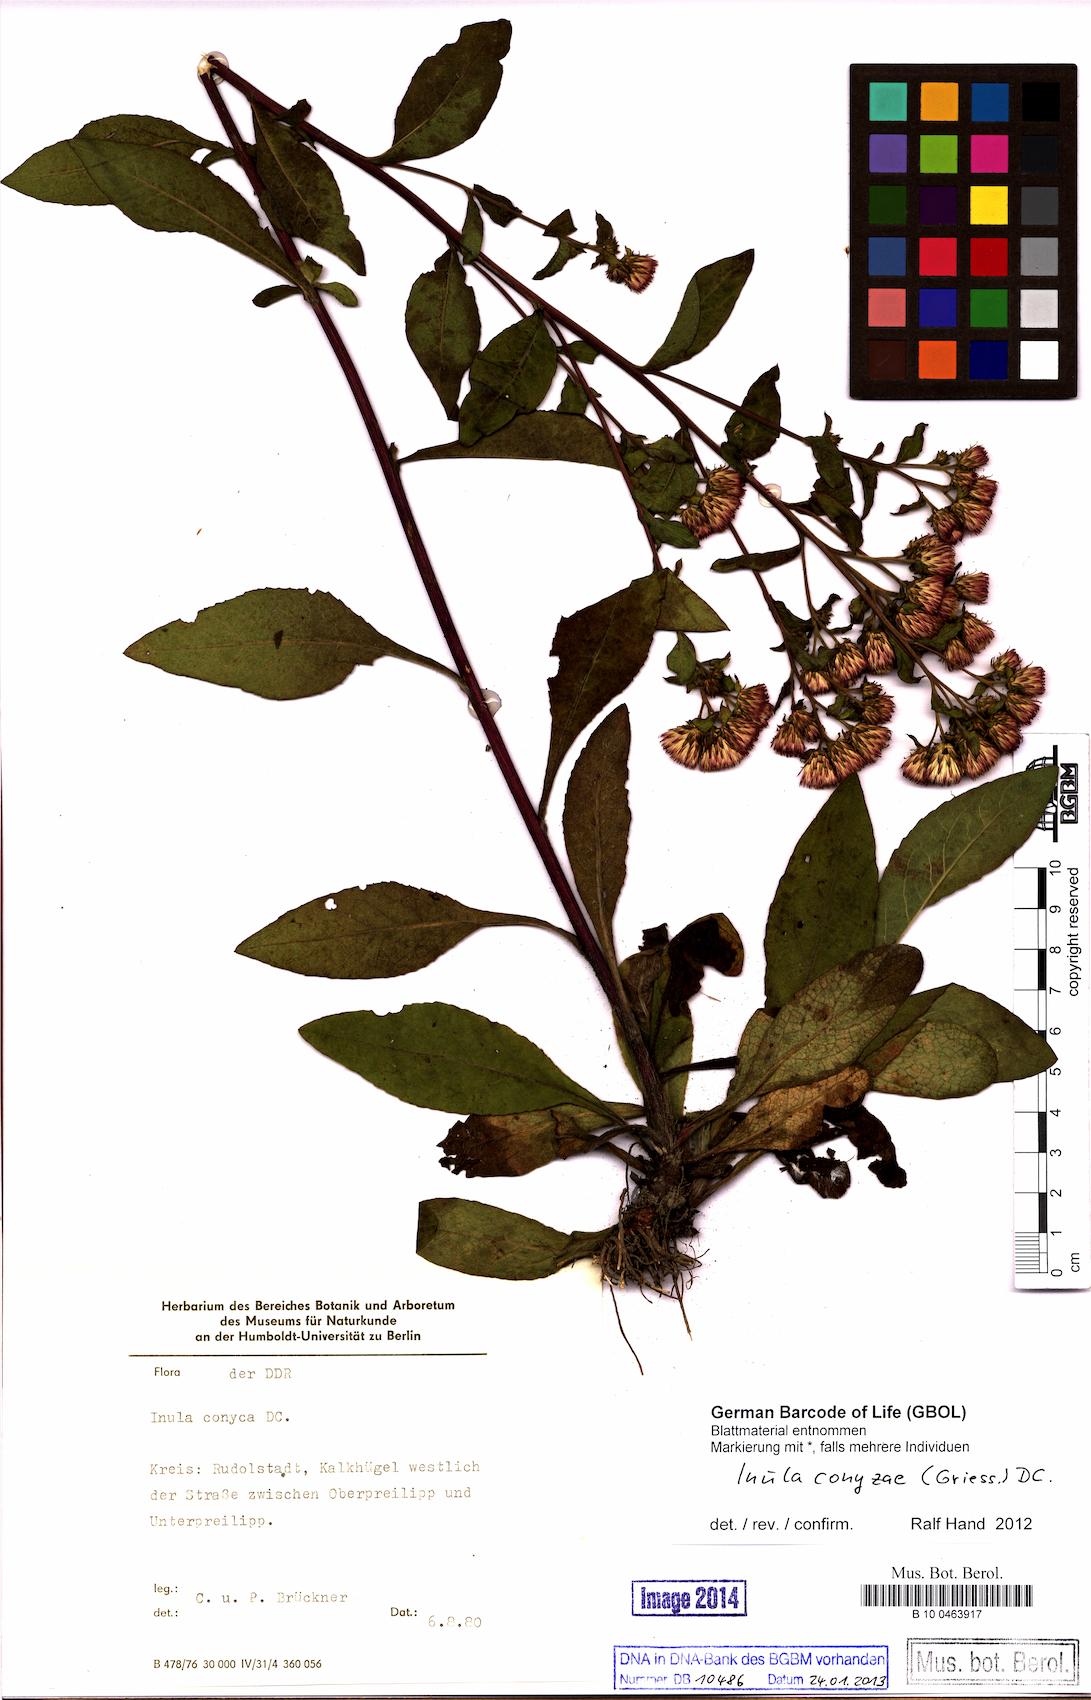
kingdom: Plantae
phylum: Tracheophyta
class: Magnoliopsida
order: Asterales
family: Asteraceae
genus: Pentanema
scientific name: Pentanema squarrosum
